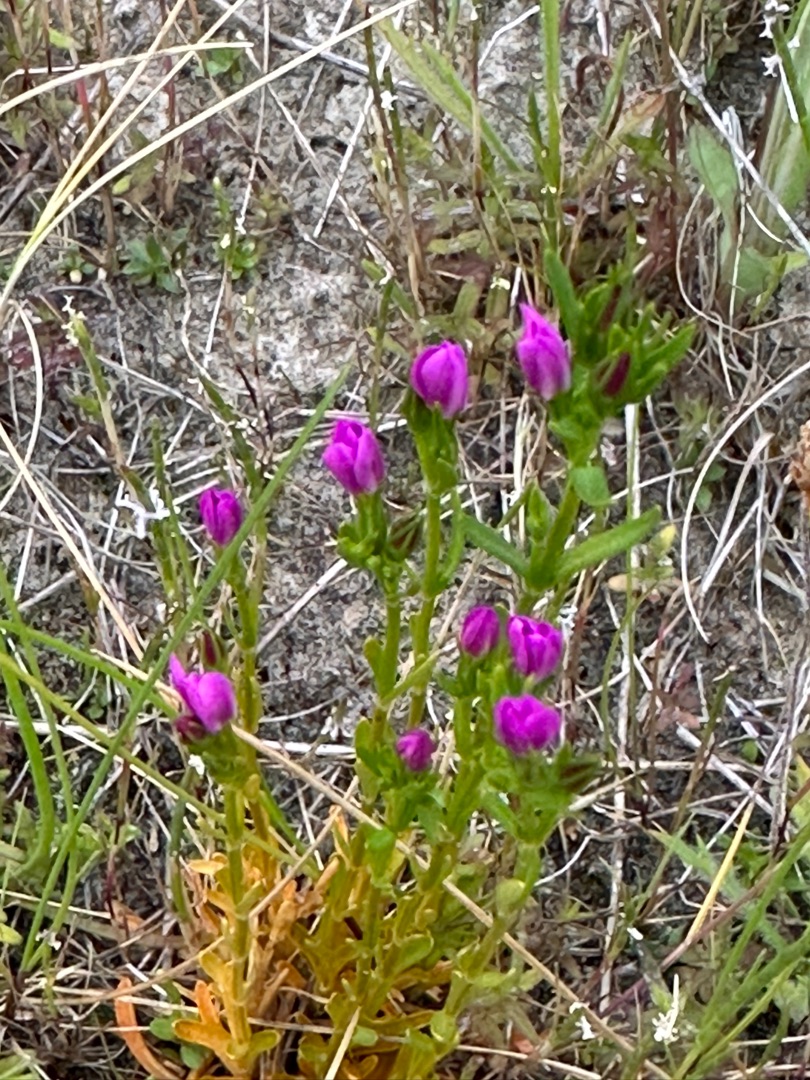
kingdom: Plantae
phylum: Tracheophyta
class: Magnoliopsida
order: Gentianales
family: Gentianaceae
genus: Centaurium
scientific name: Centaurium littorale
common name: Strand-tusindgylden
